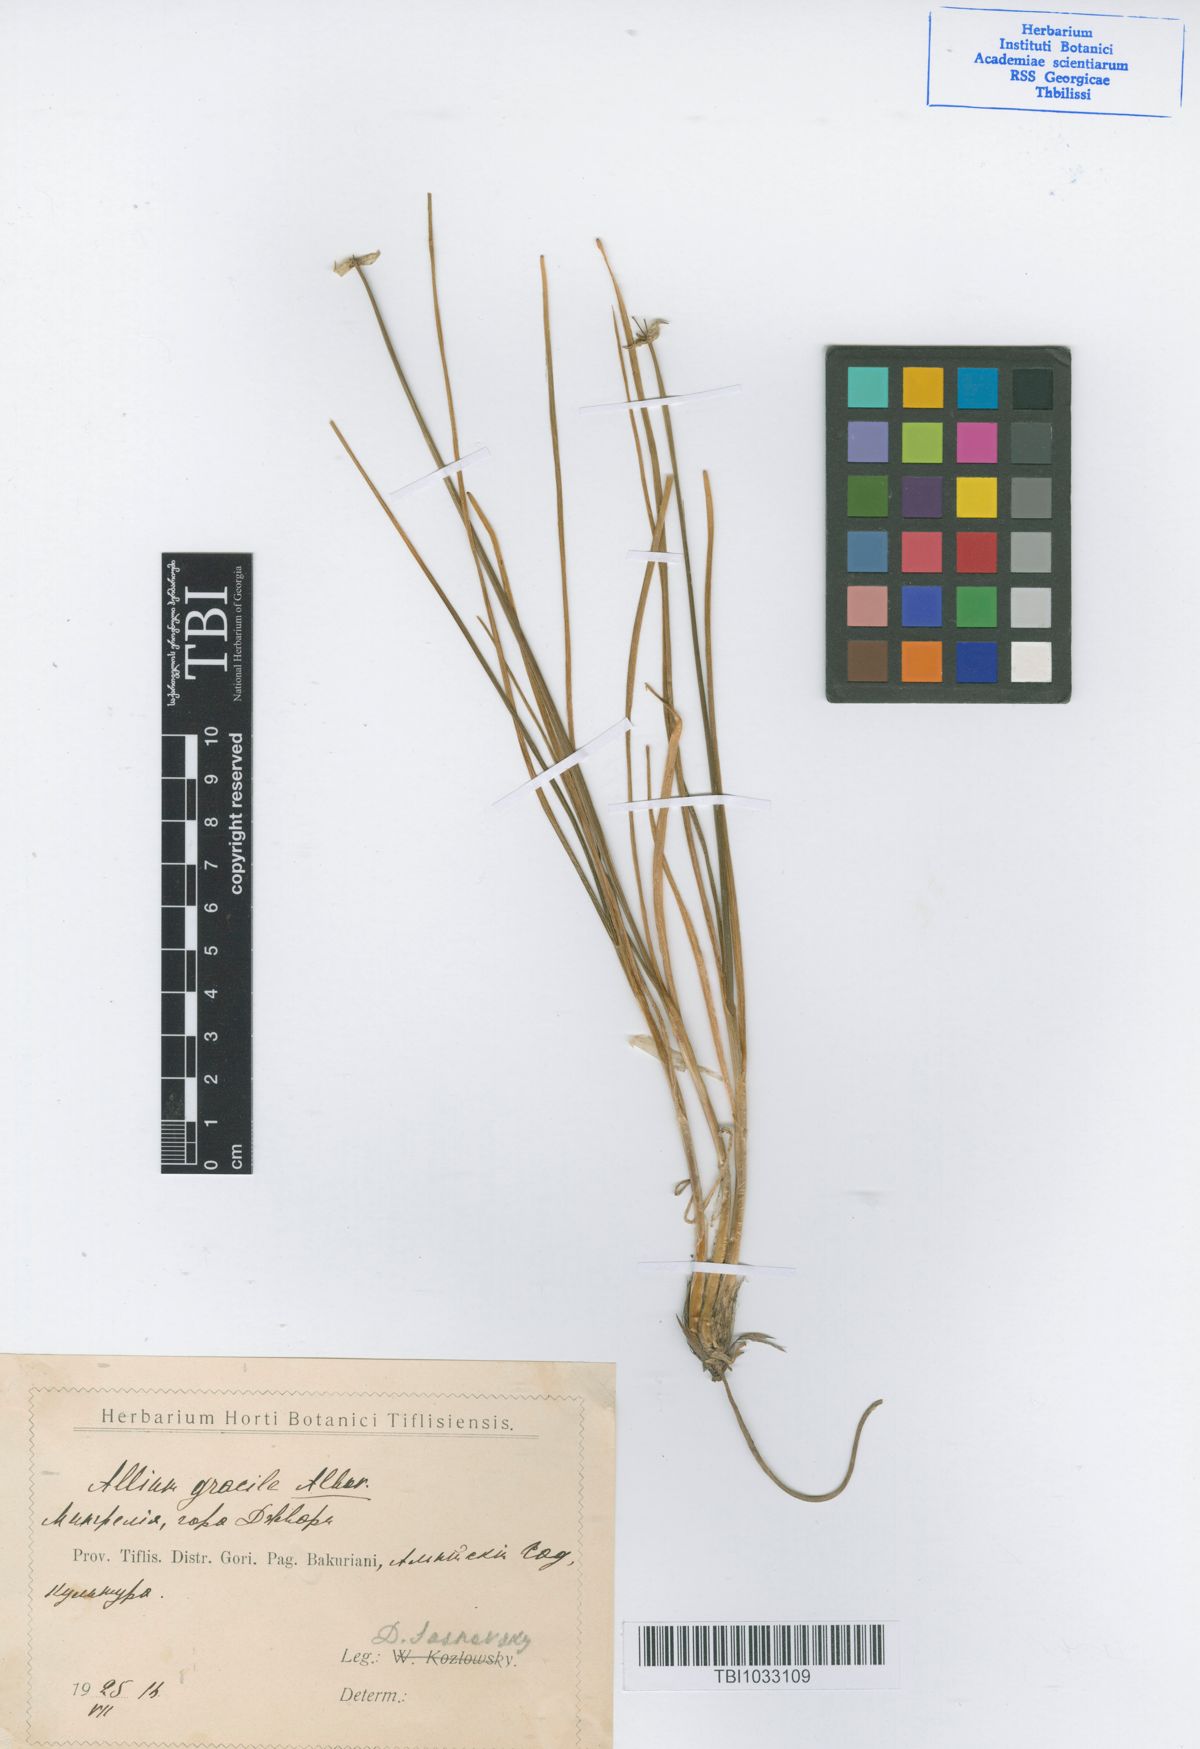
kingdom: Plantae
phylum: Tracheophyta
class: Liliopsida
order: Asparagales
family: Amaryllidaceae
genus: Allium
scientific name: Allium albovianum
